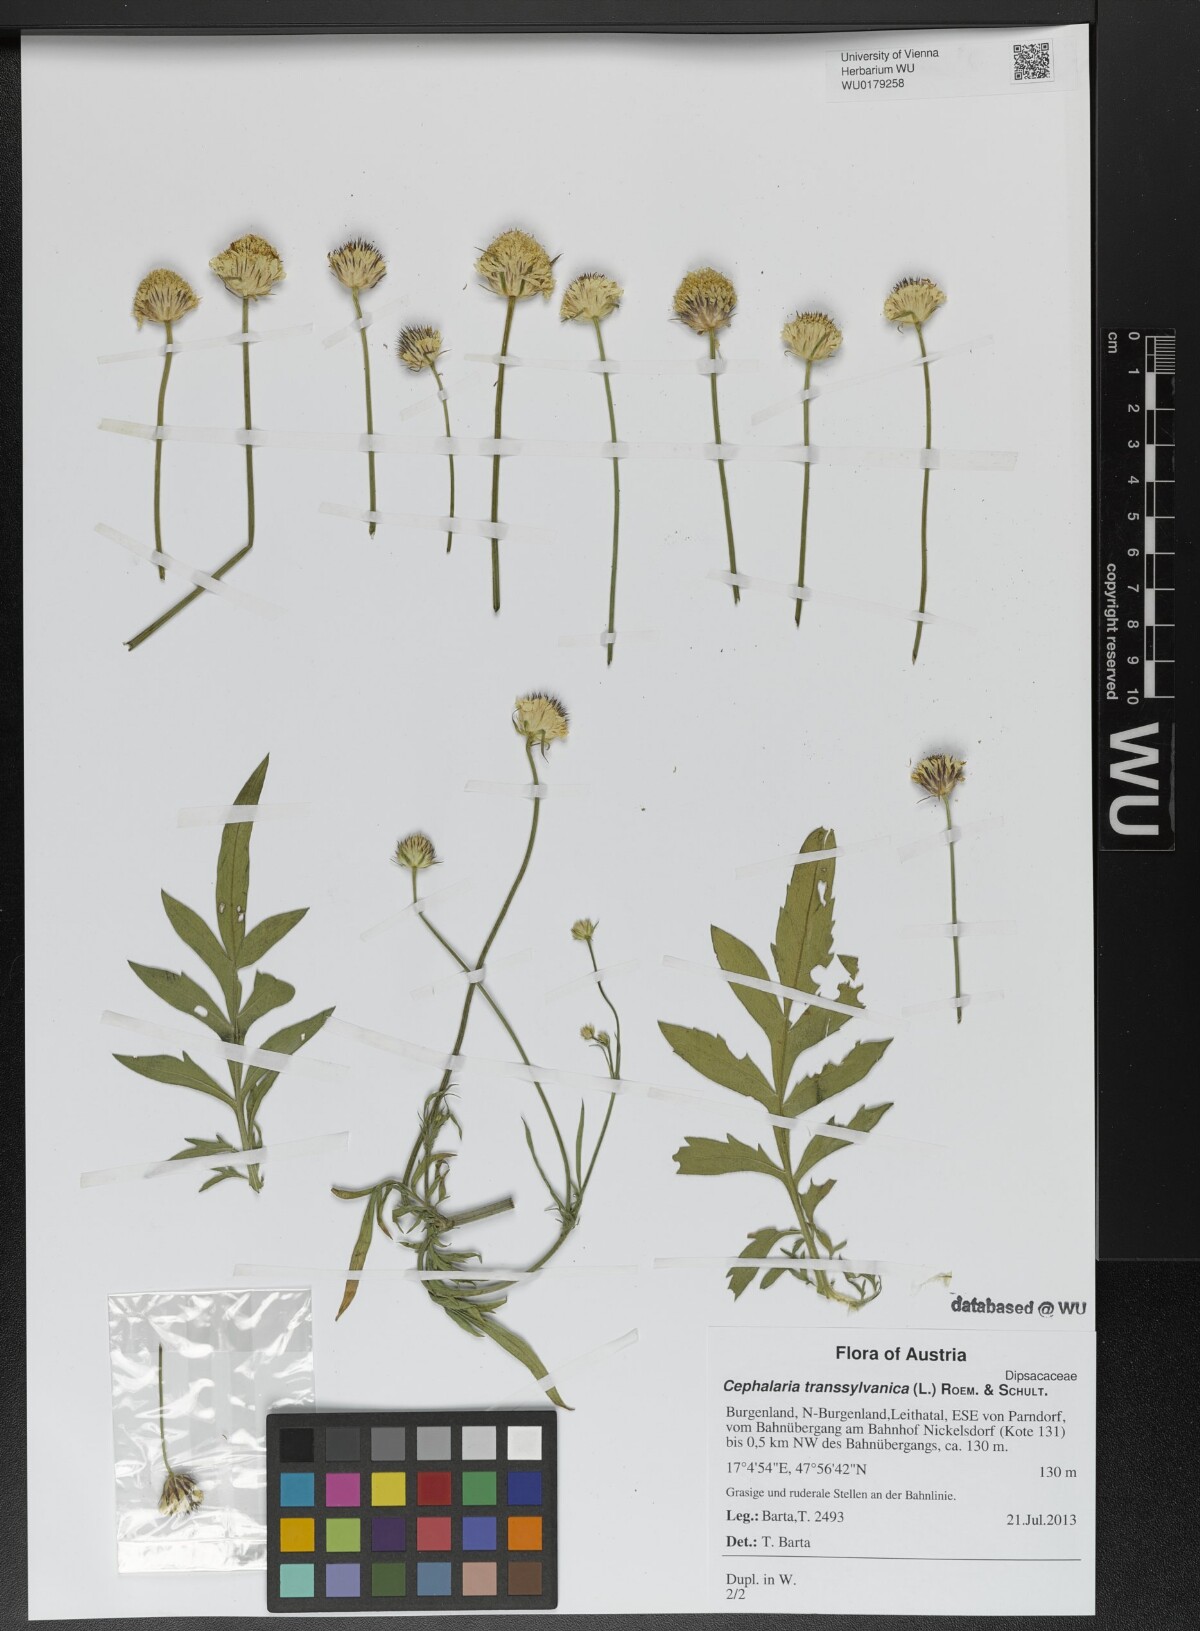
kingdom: Plantae
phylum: Tracheophyta
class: Magnoliopsida
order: Dipsacales
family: Caprifoliaceae
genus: Cephalaria
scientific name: Cephalaria transsylvanica
